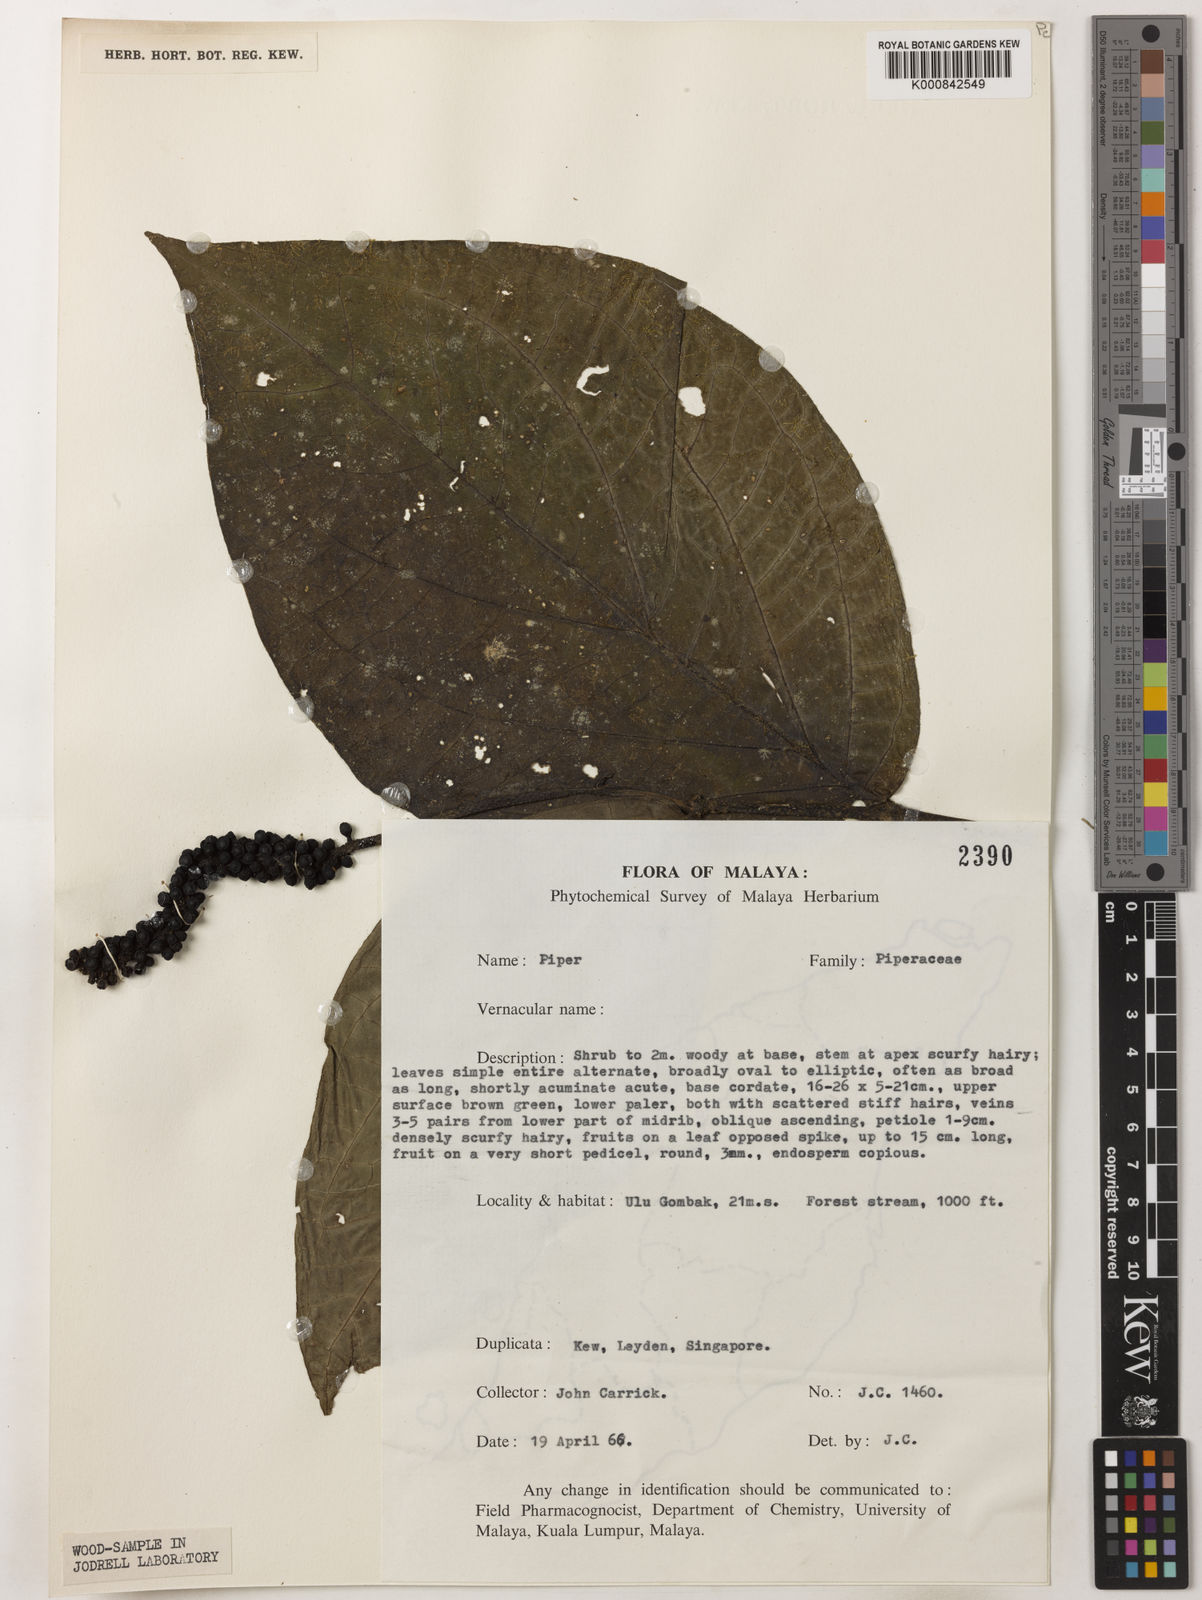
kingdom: Plantae
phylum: Tracheophyta
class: Magnoliopsida
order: Piperales
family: Piperaceae
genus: Piper
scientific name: Piper
